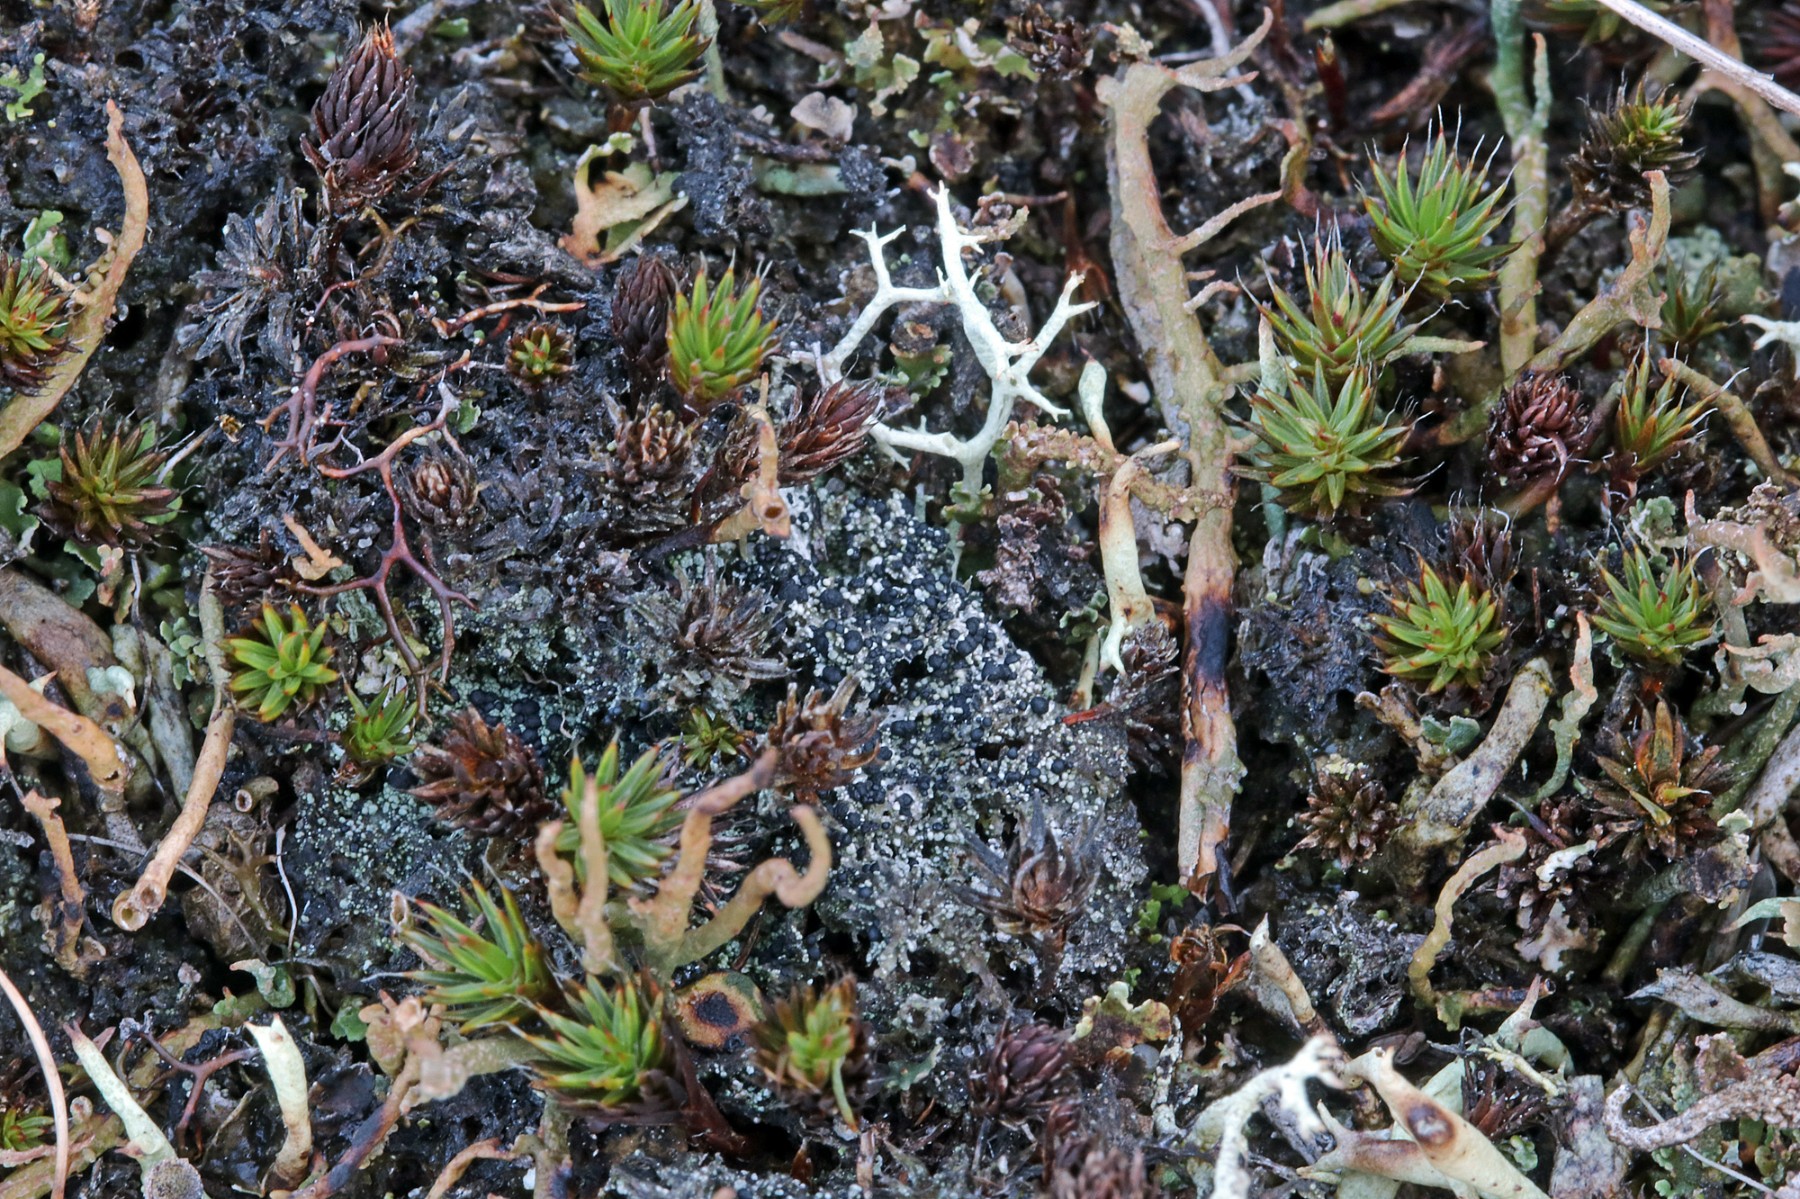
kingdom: Fungi
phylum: Ascomycota
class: Lecanoromycetes
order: Lecanorales
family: Byssolomataceae
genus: Micarea
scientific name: Micarea lignaria
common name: tørve-knaplav
